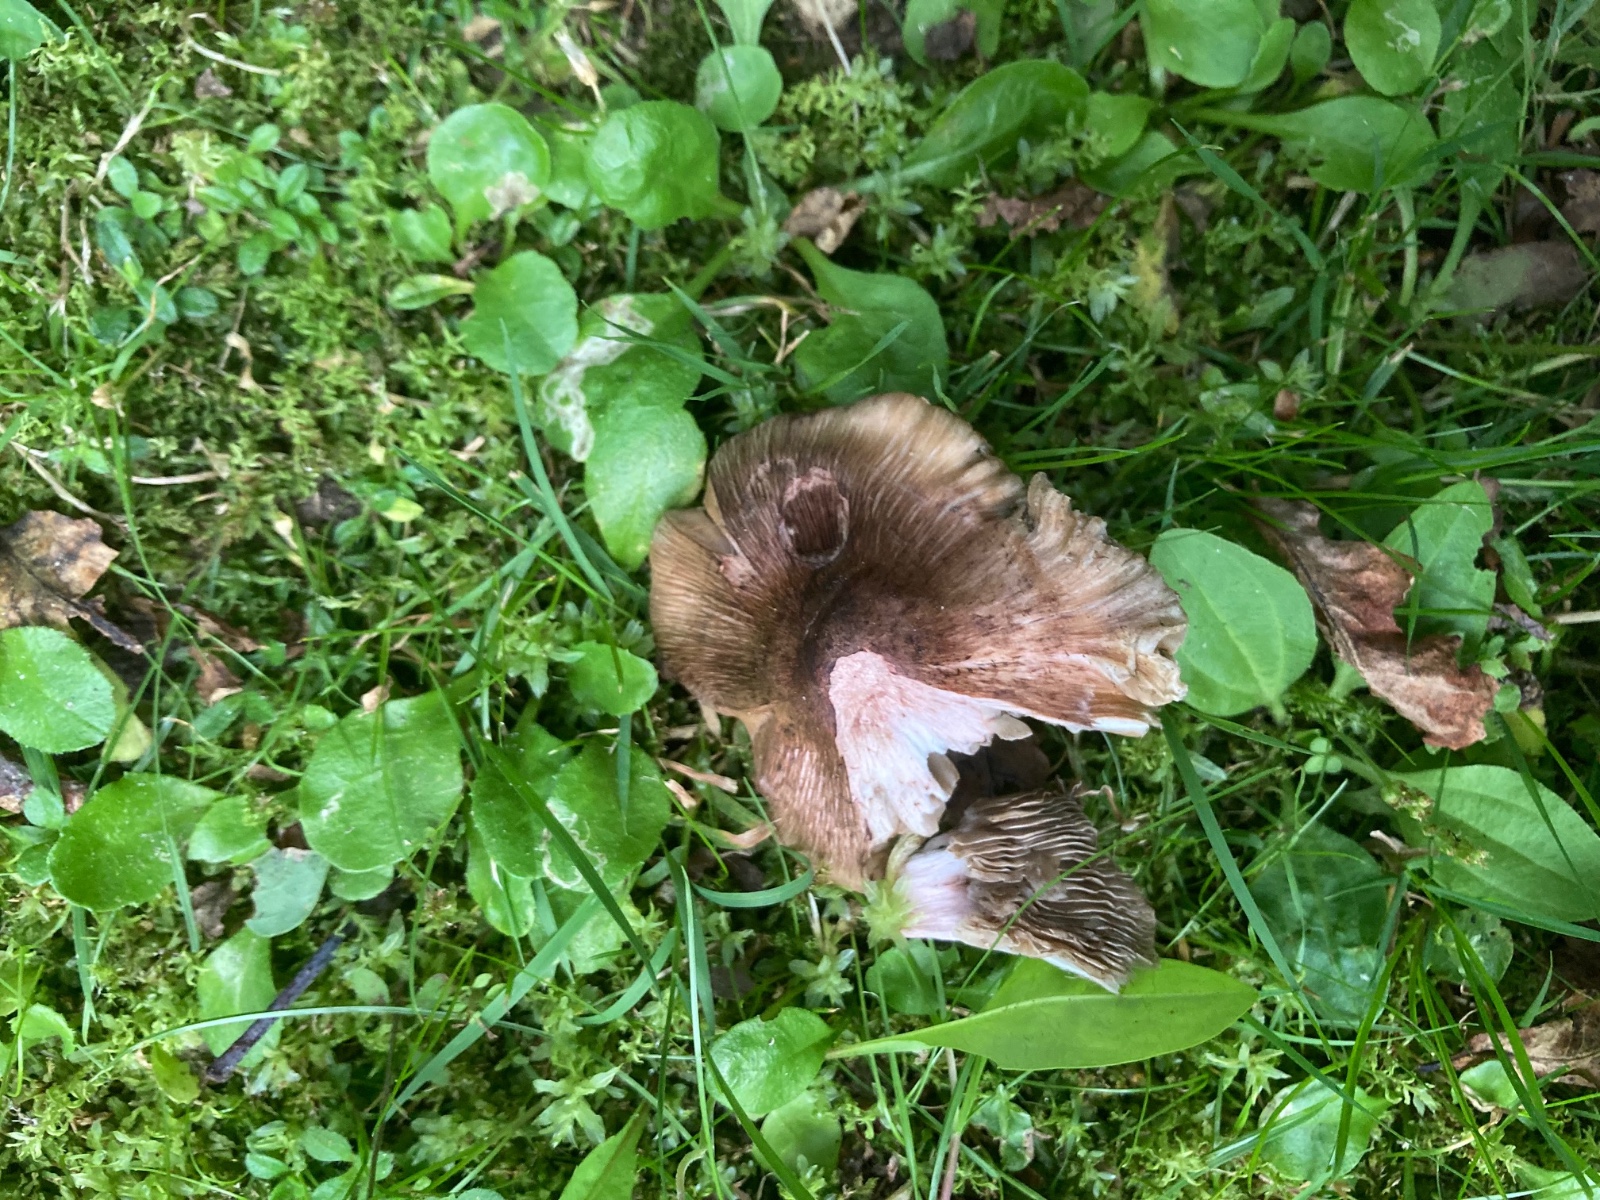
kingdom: Fungi
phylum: Basidiomycota
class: Agaricomycetes
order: Agaricales
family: Inocybaceae
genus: Inosperma
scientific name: Inosperma adaequatum
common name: vinrød trævlhat
